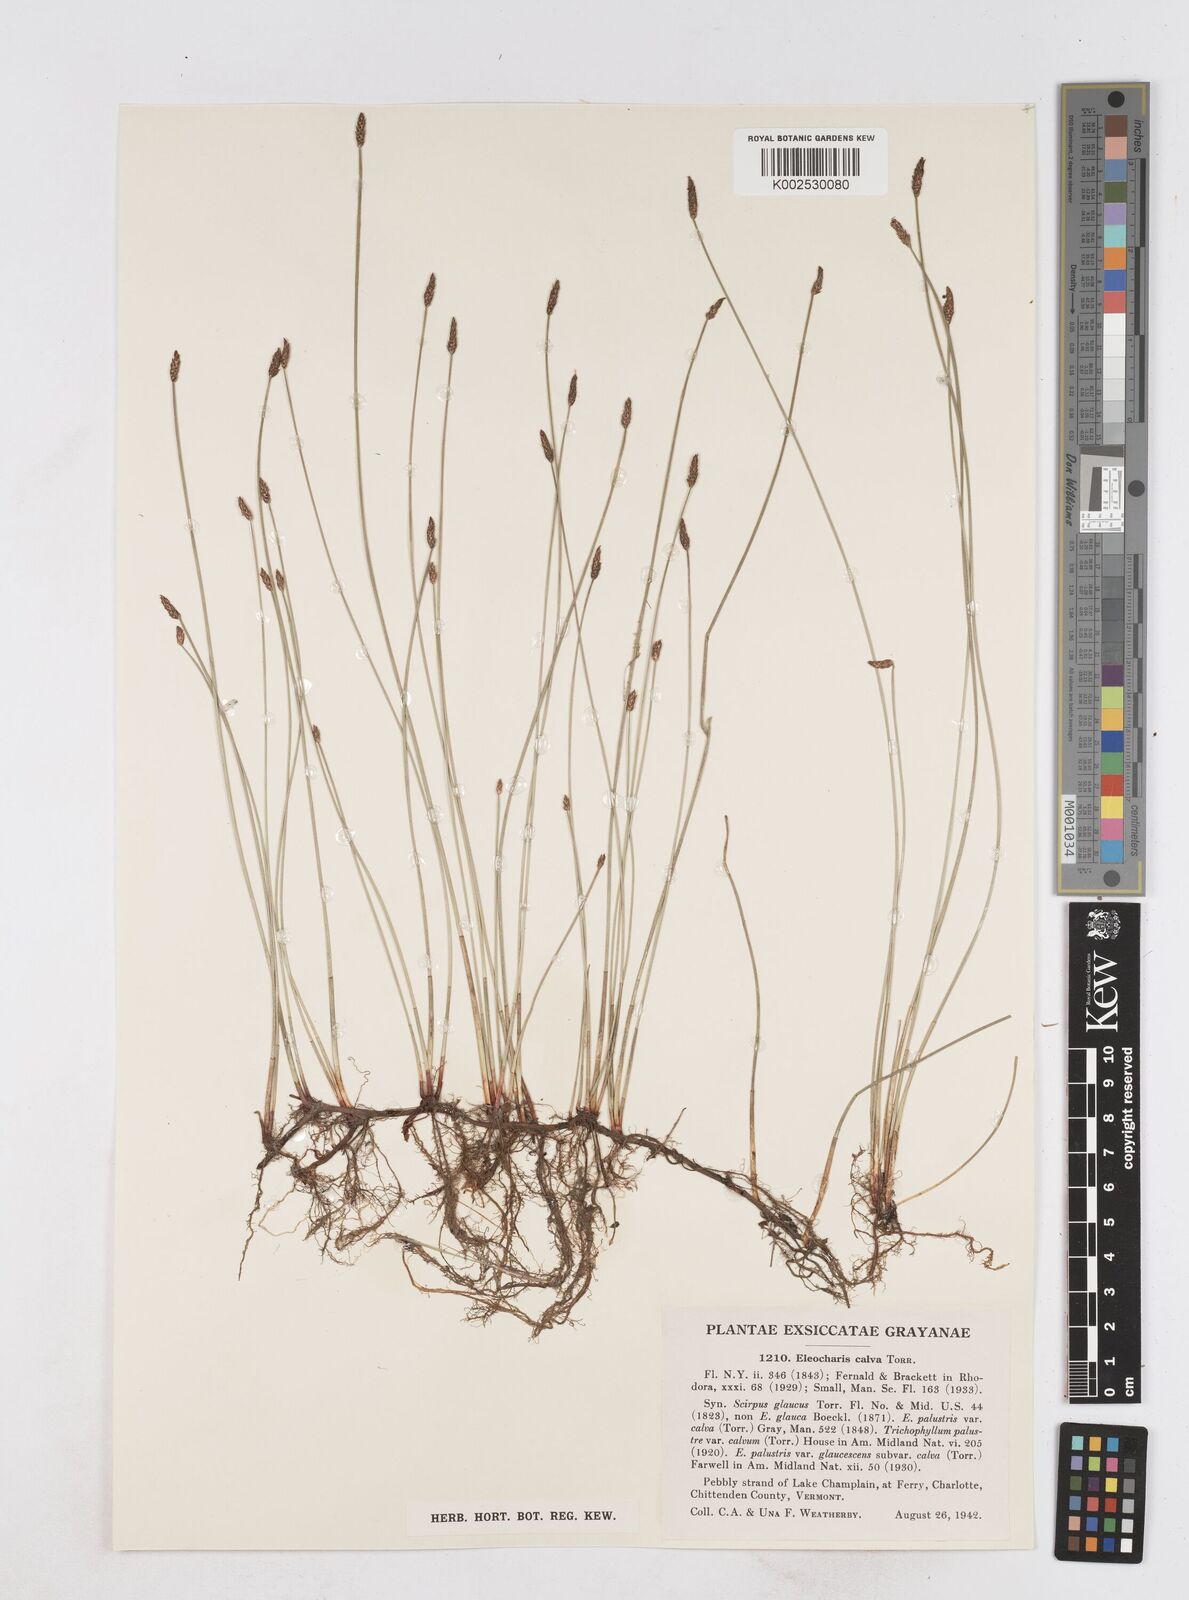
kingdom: Plantae
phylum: Tracheophyta
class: Liliopsida
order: Poales
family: Cyperaceae
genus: Eleocharis
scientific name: Eleocharis palustris
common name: Common spike-rush
